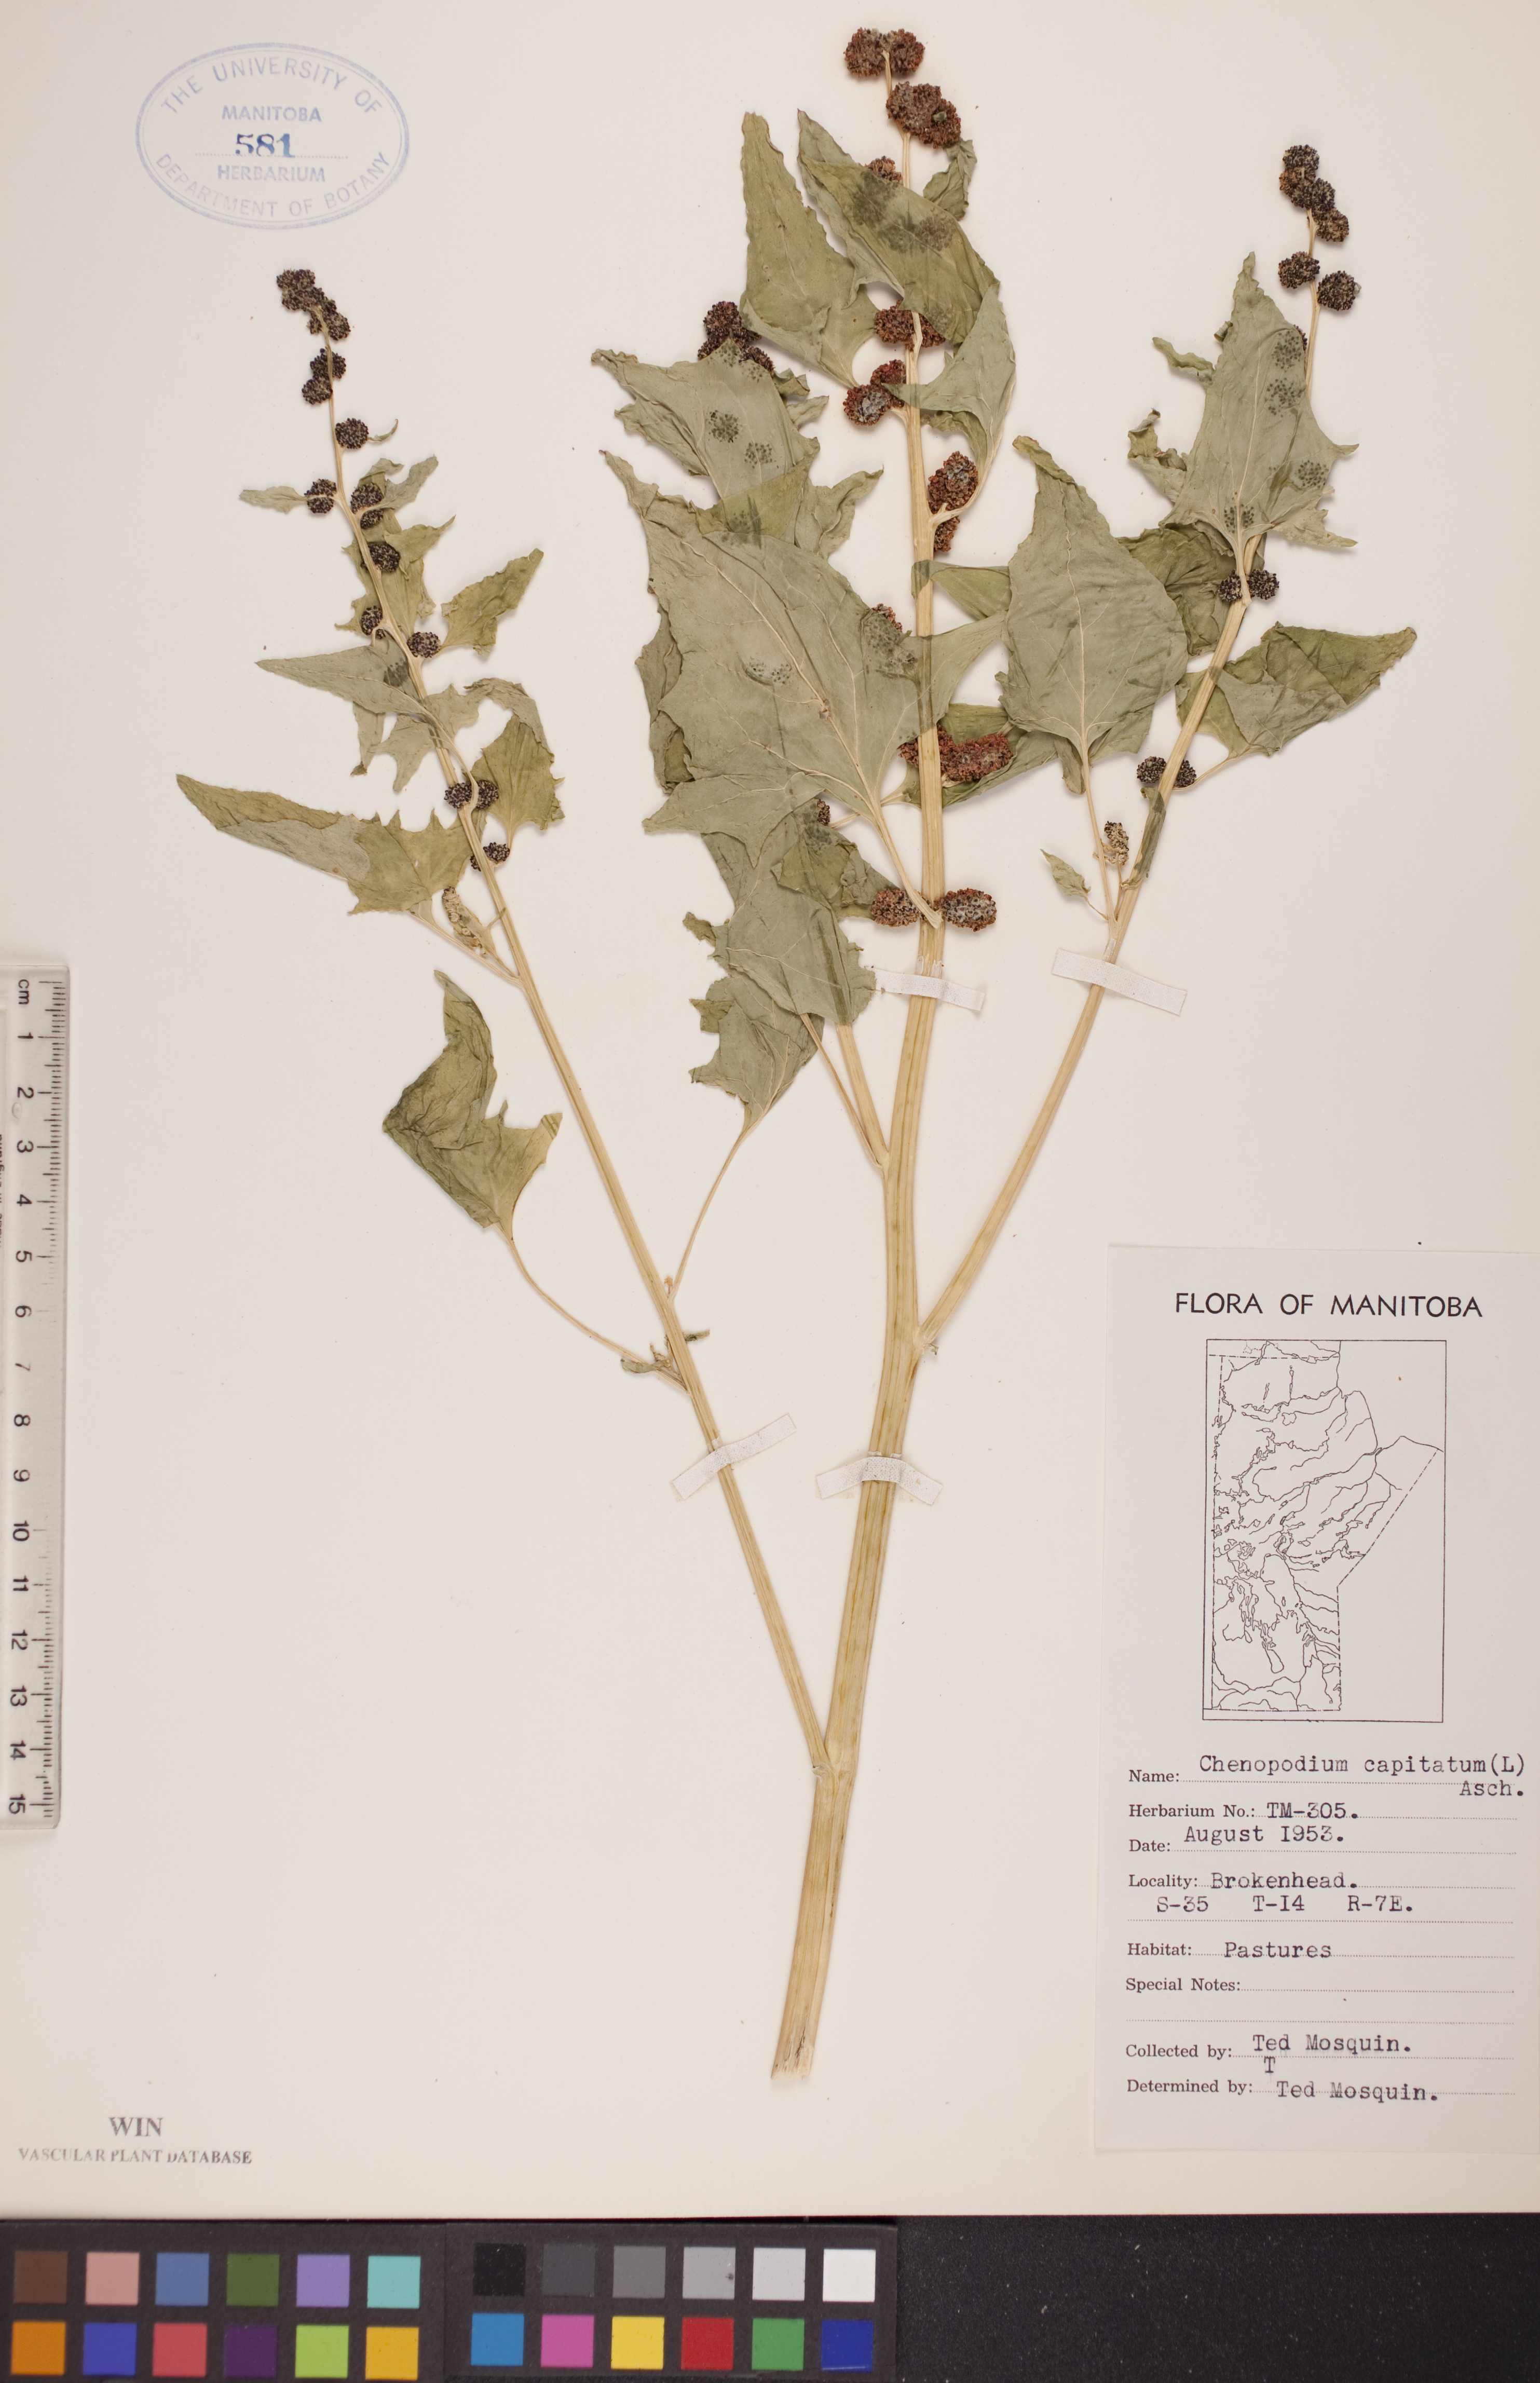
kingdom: Plantae
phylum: Tracheophyta
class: Magnoliopsida
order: Caryophyllales
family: Amaranthaceae
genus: Blitum
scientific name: Blitum capitatum
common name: Strawberry-blight
